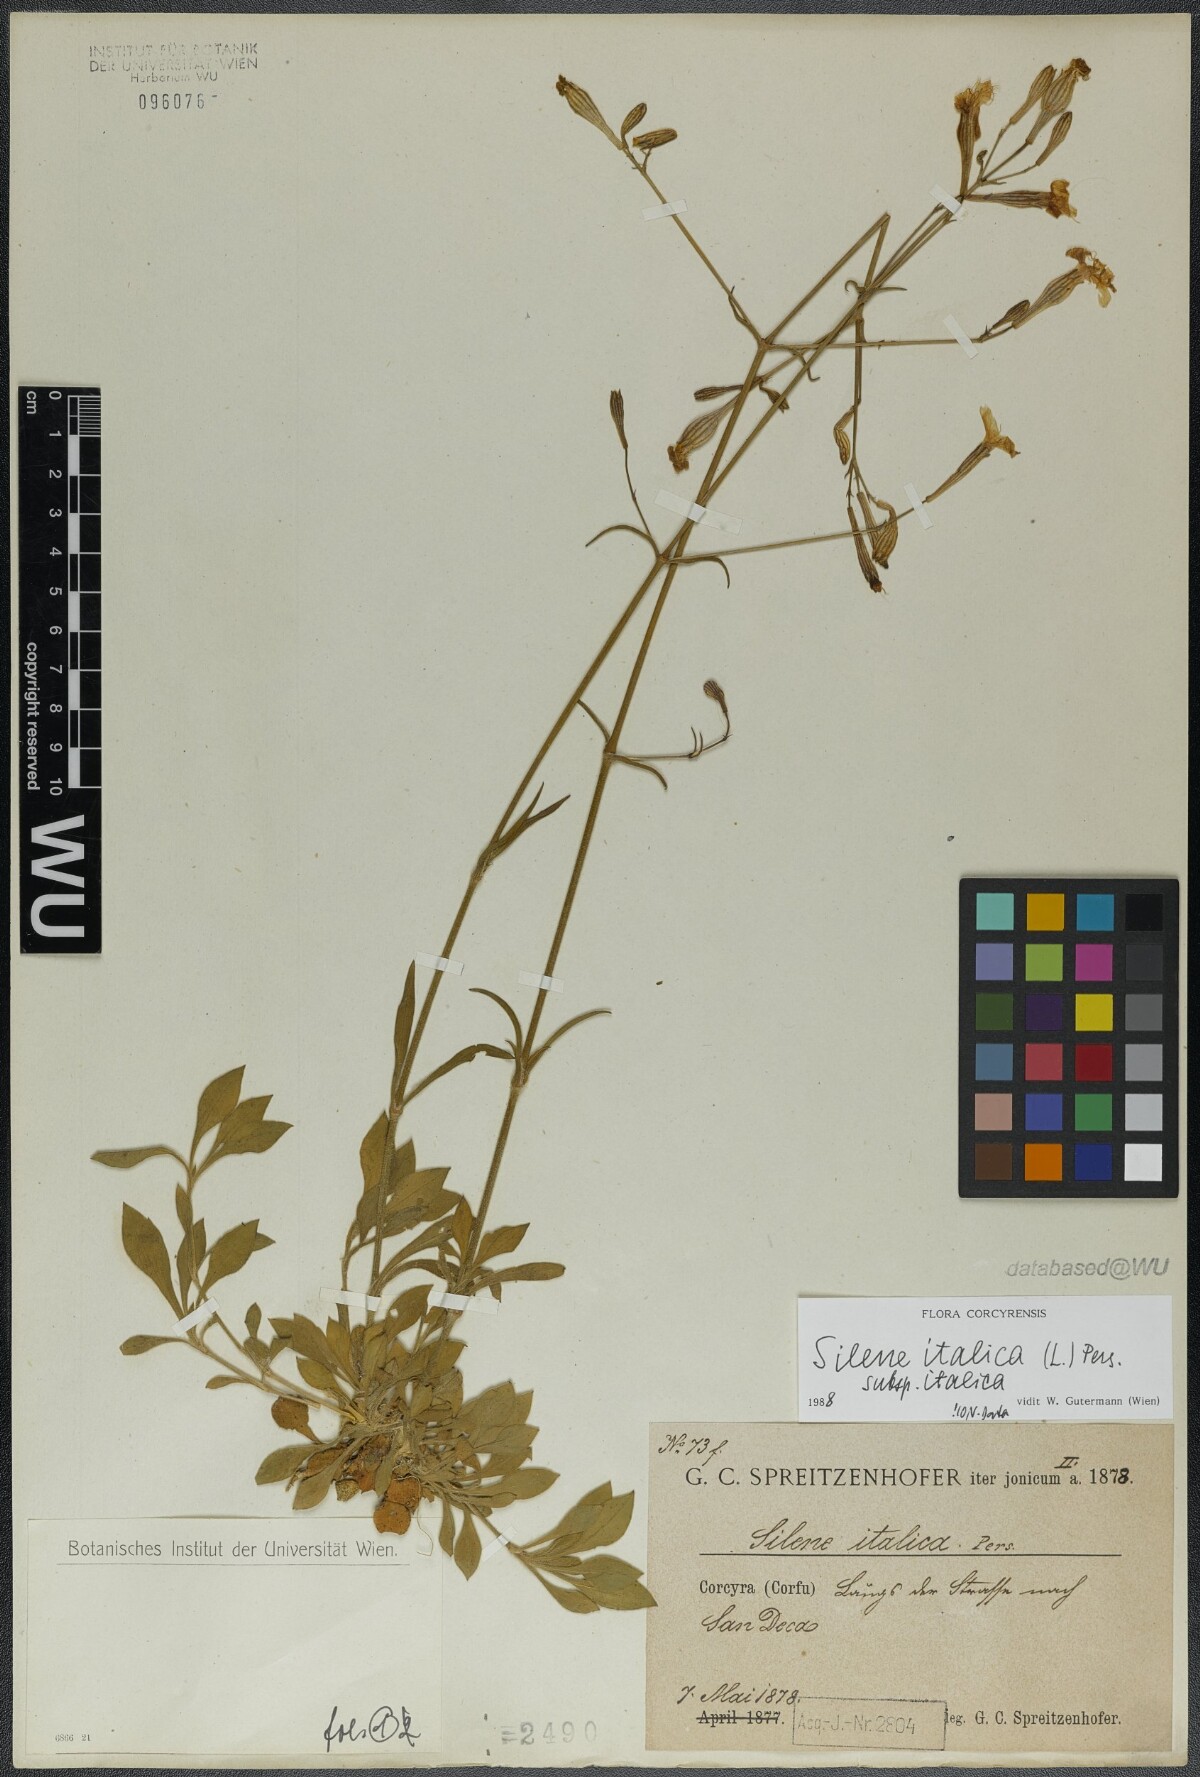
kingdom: Plantae
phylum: Tracheophyta
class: Magnoliopsida
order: Caryophyllales
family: Caryophyllaceae
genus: Silene
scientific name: Silene italica
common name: Italian catchfly
